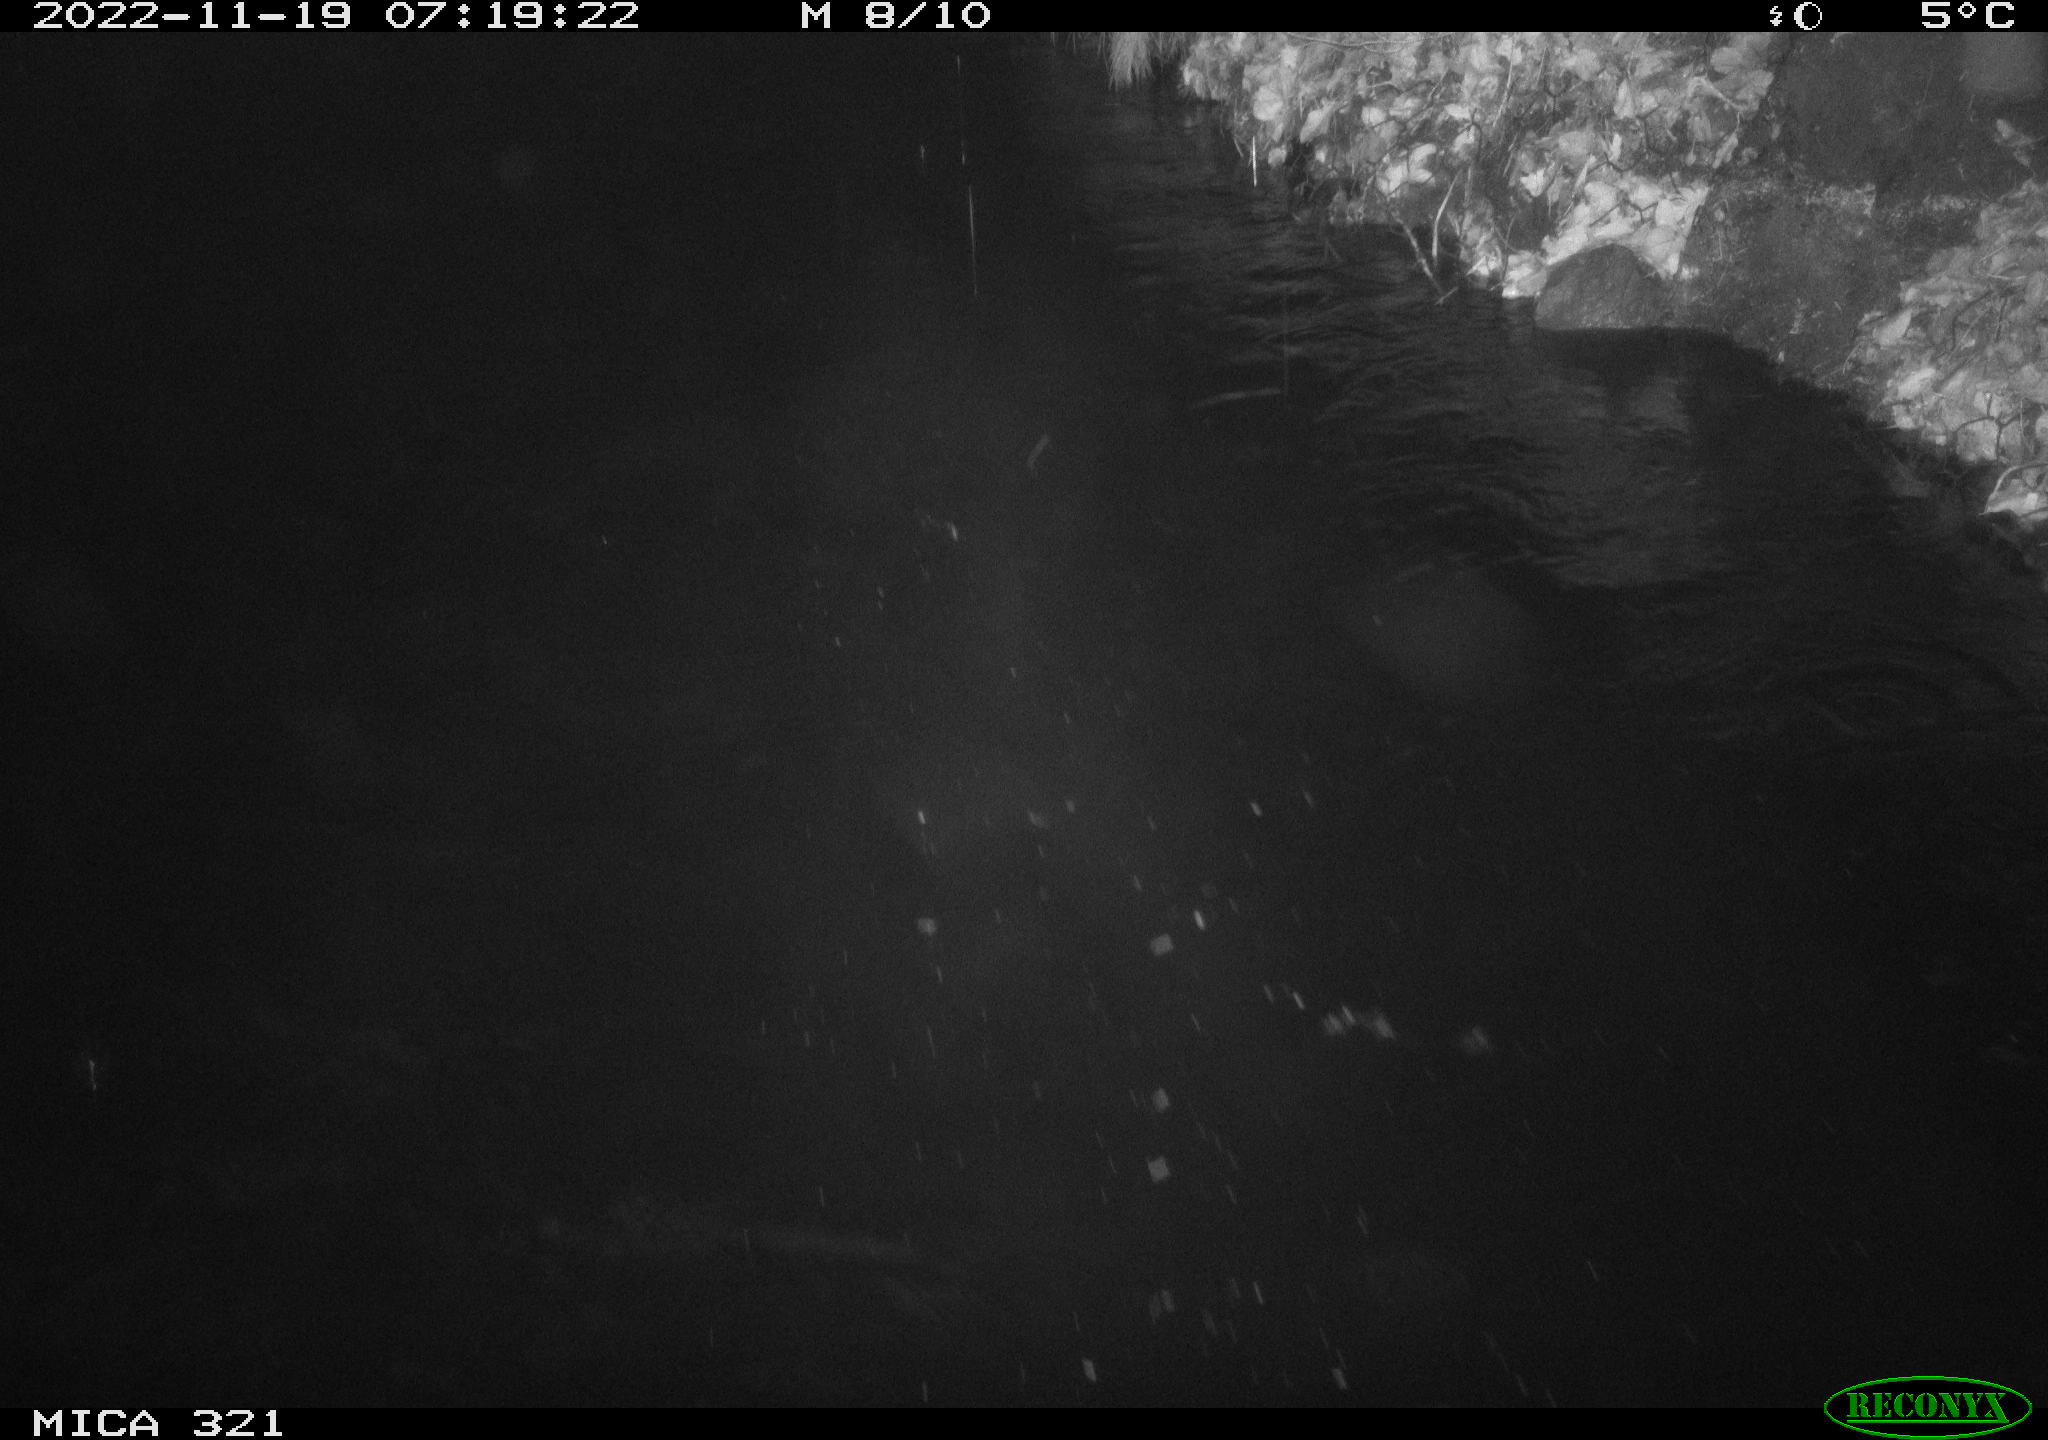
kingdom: Animalia
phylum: Chordata
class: Aves
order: Anseriformes
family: Anatidae
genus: Anas
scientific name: Anas
